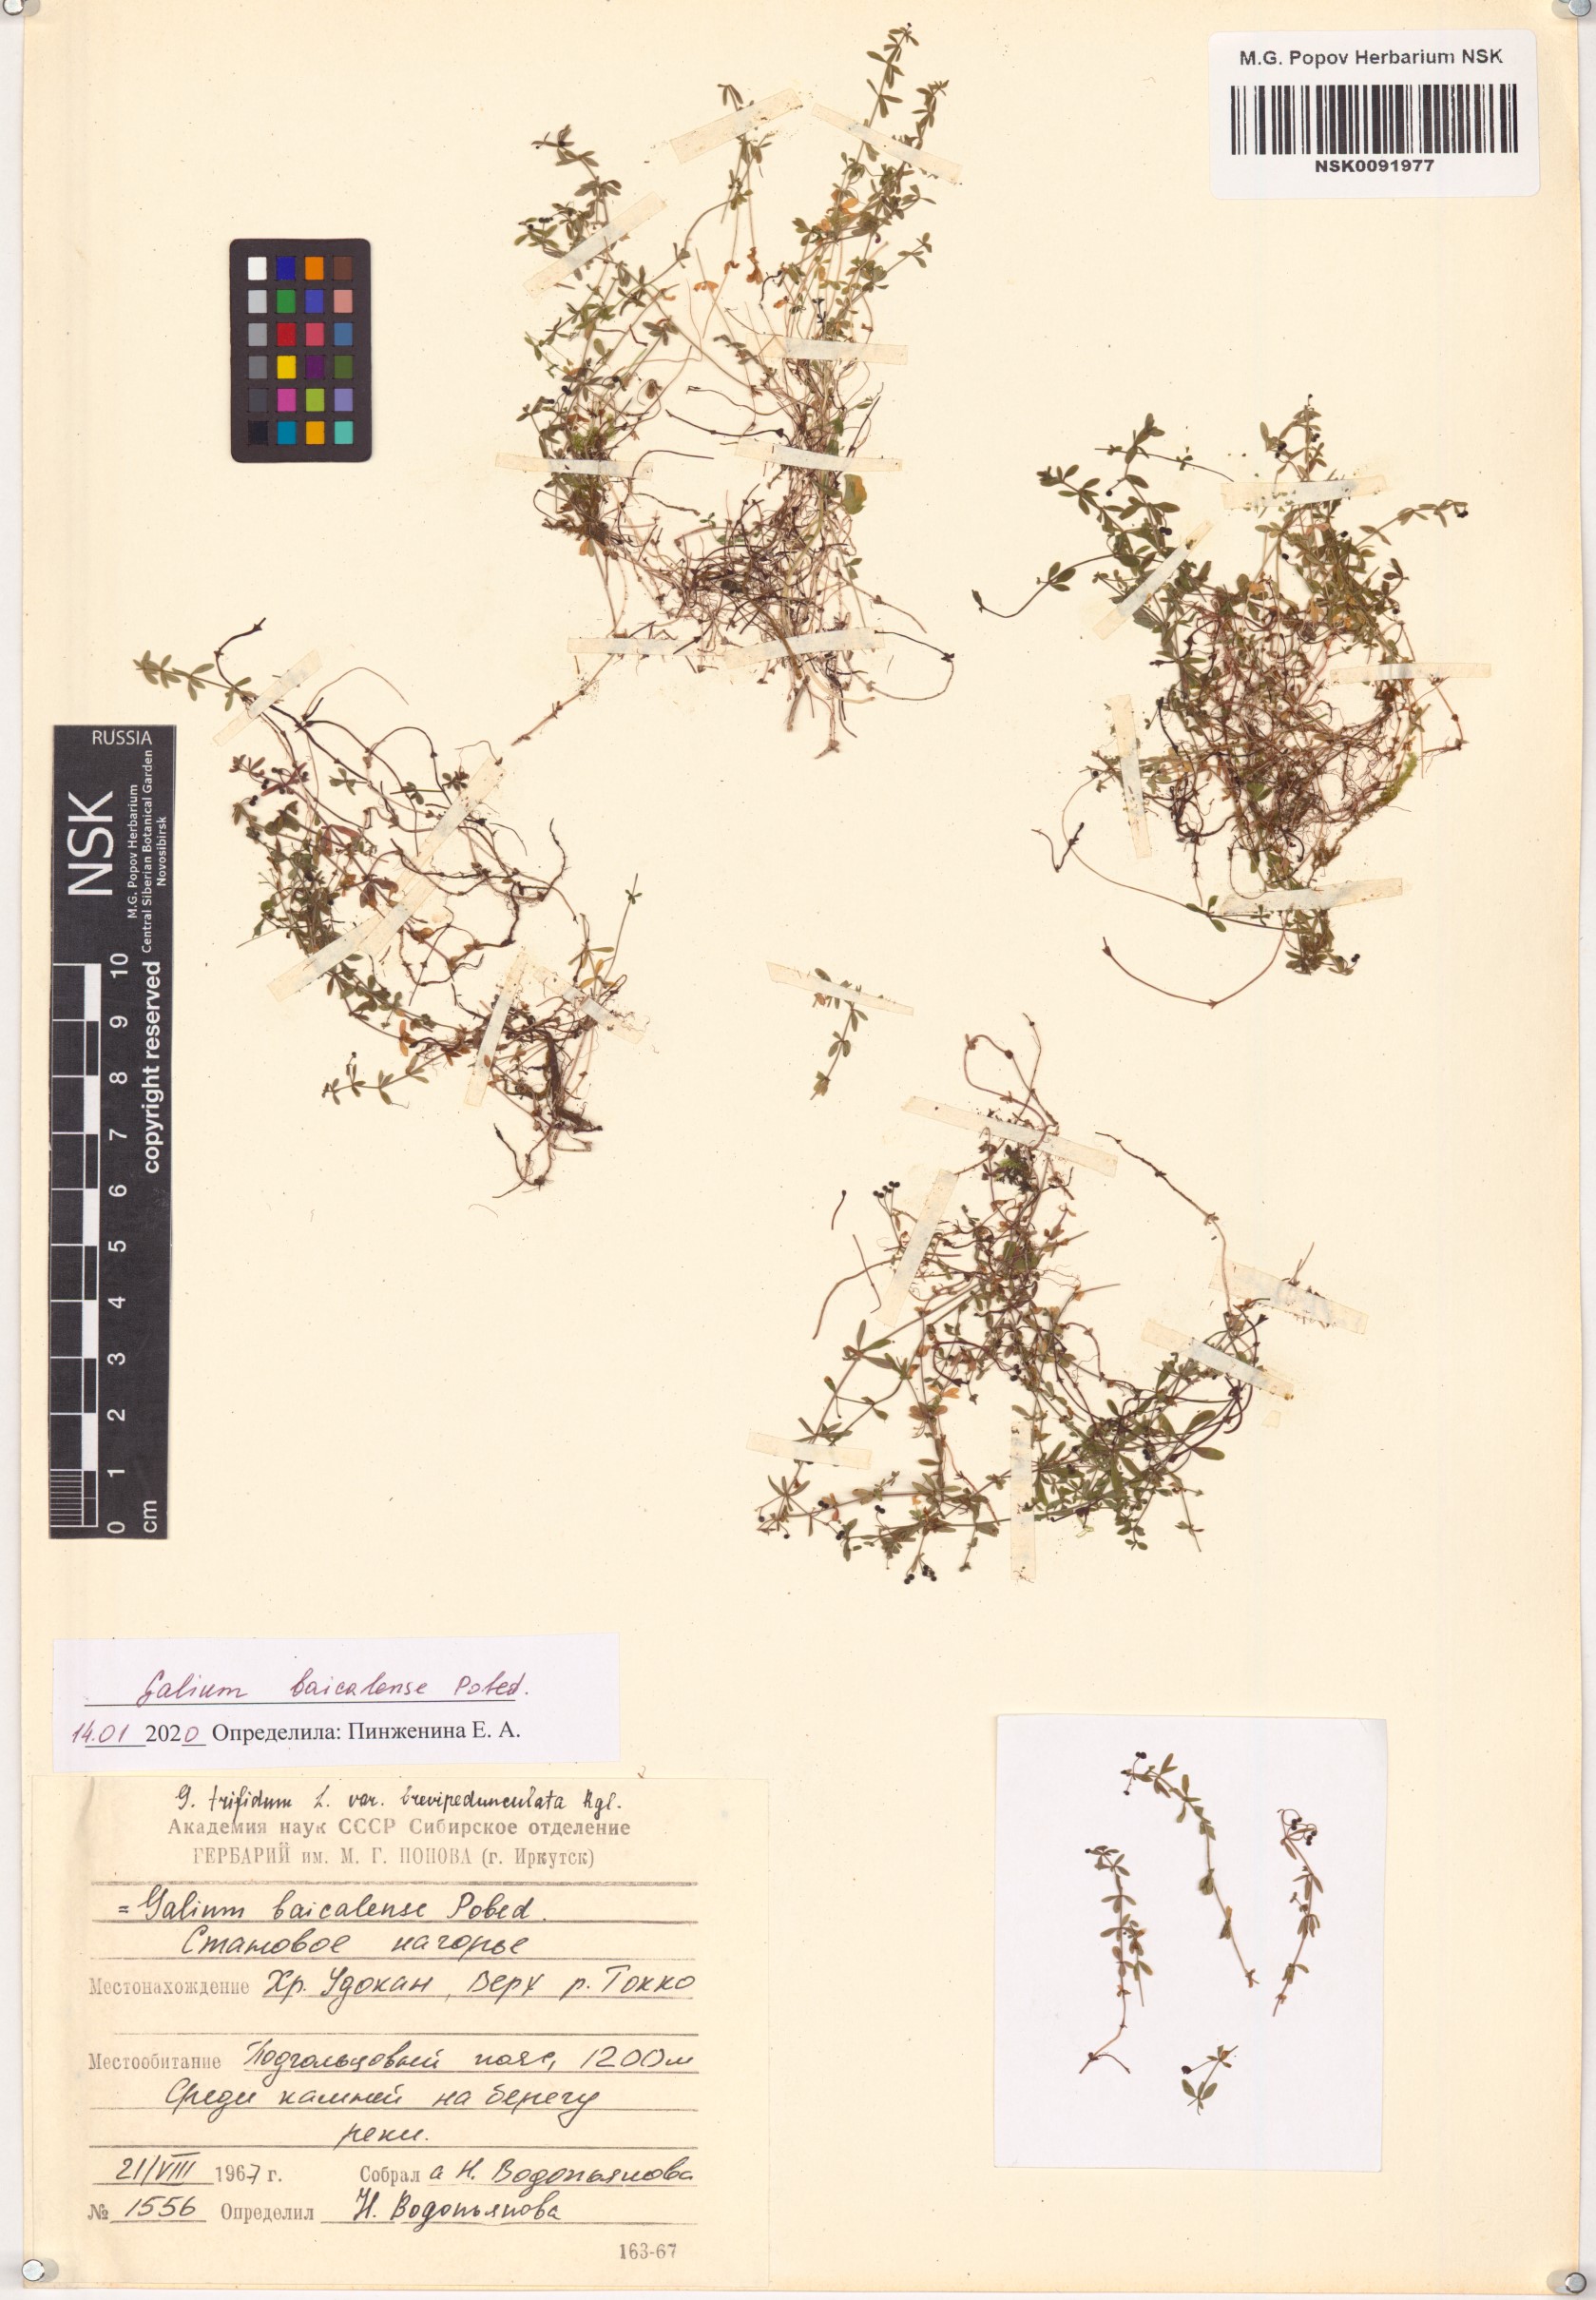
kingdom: Plantae
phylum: Tracheophyta
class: Magnoliopsida
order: Gentianales
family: Rubiaceae
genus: Galium
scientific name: Galium trifidum
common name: Small bedstraw
